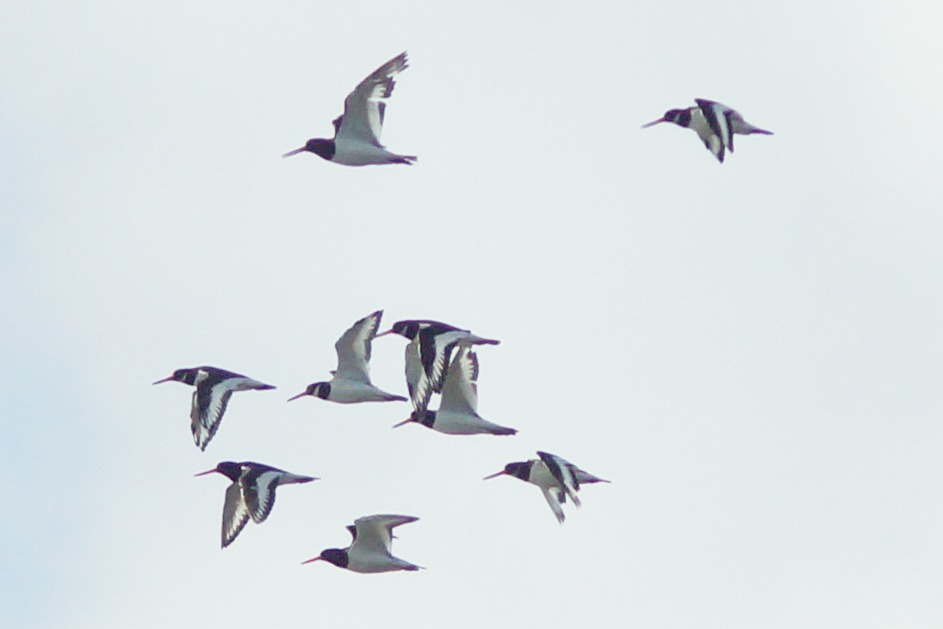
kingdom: Animalia
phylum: Chordata
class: Aves
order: Charadriiformes
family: Haematopodidae
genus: Haematopus
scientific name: Haematopus ostralegus
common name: Strandskade
